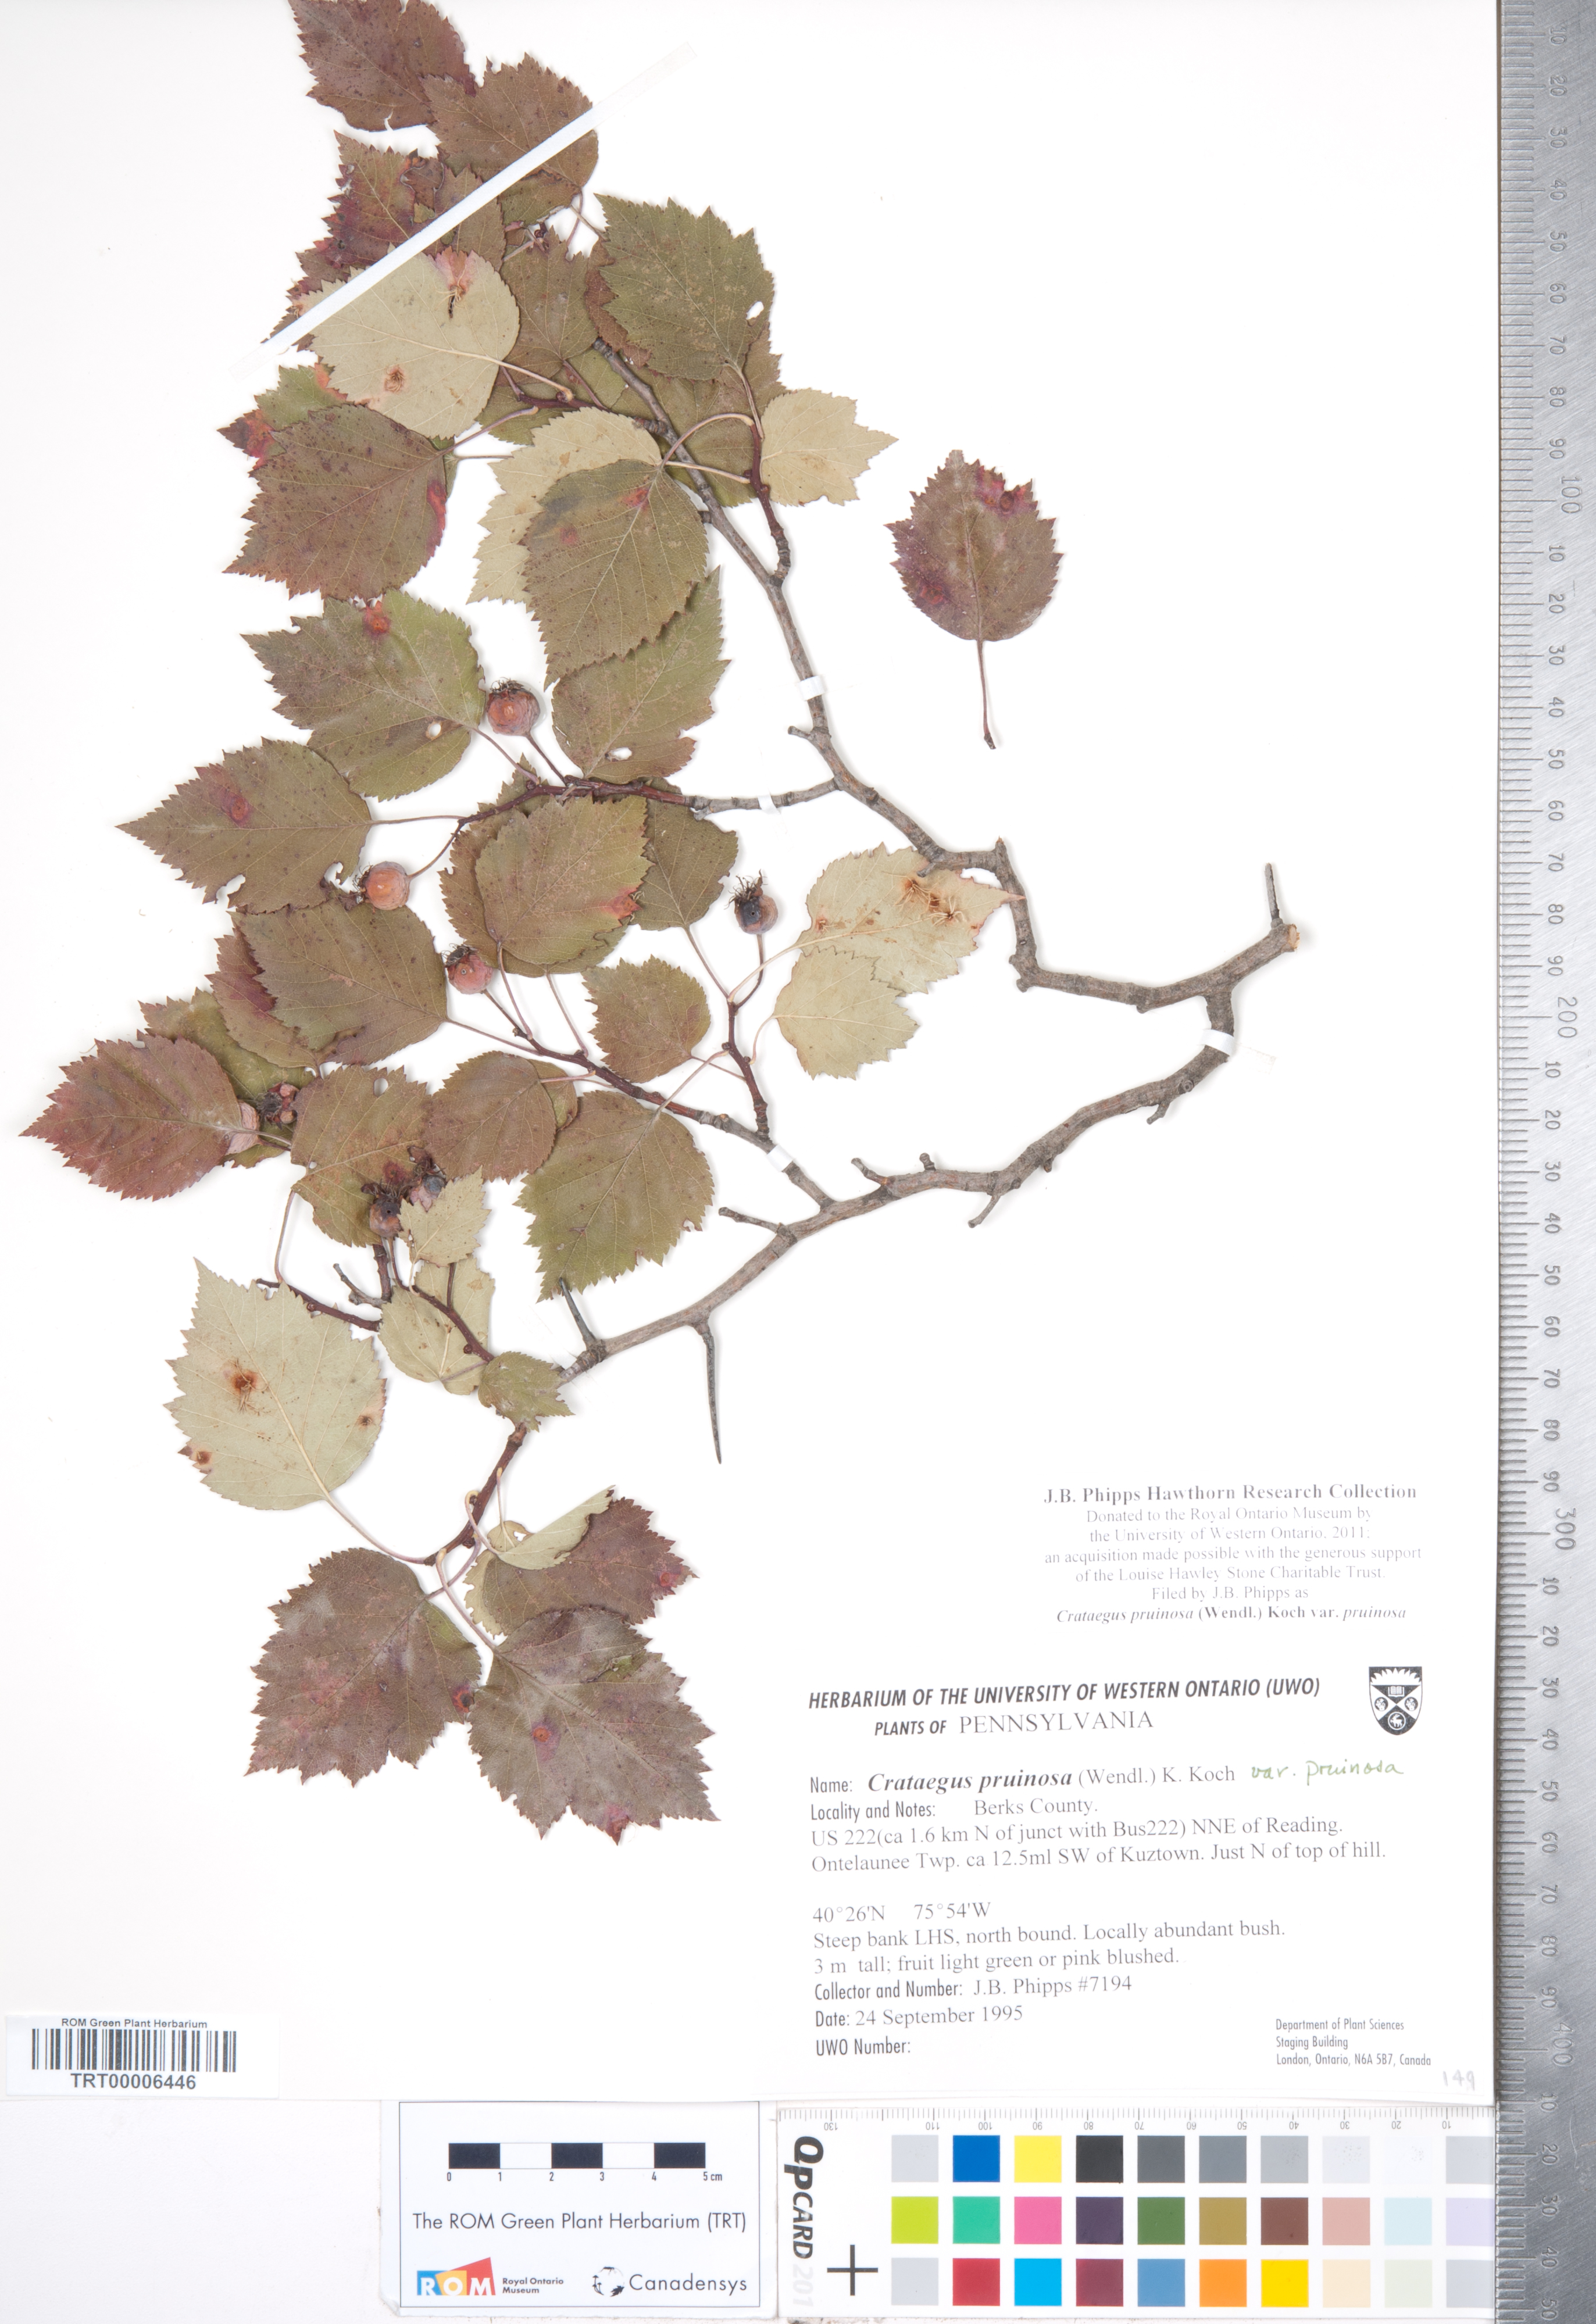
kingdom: Plantae
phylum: Tracheophyta
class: Magnoliopsida
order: Rosales
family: Rosaceae
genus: Crataegus
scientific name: Crataegus pruinosa
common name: Waxy-fruit hawthorn
